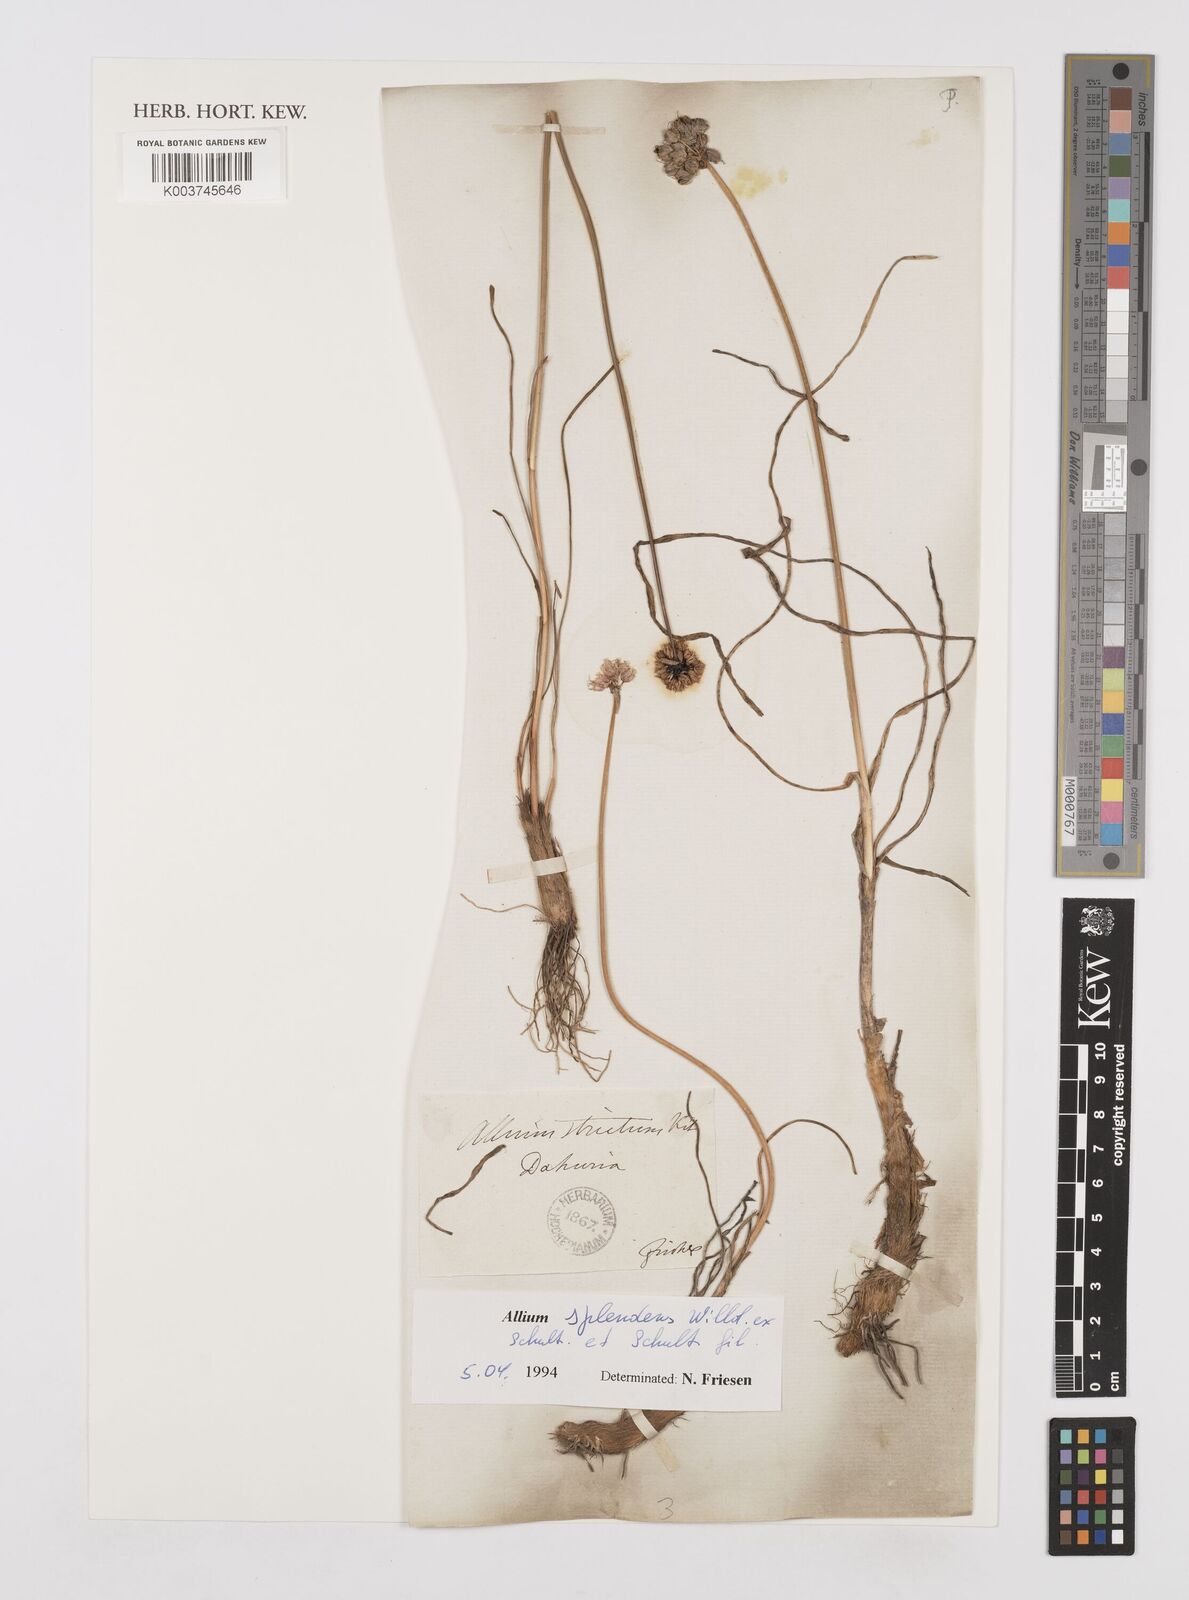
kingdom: Plantae
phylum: Tracheophyta
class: Liliopsida
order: Asparagales
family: Amaryllidaceae
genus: Allium
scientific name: Allium chinense
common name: Japanese scallion
